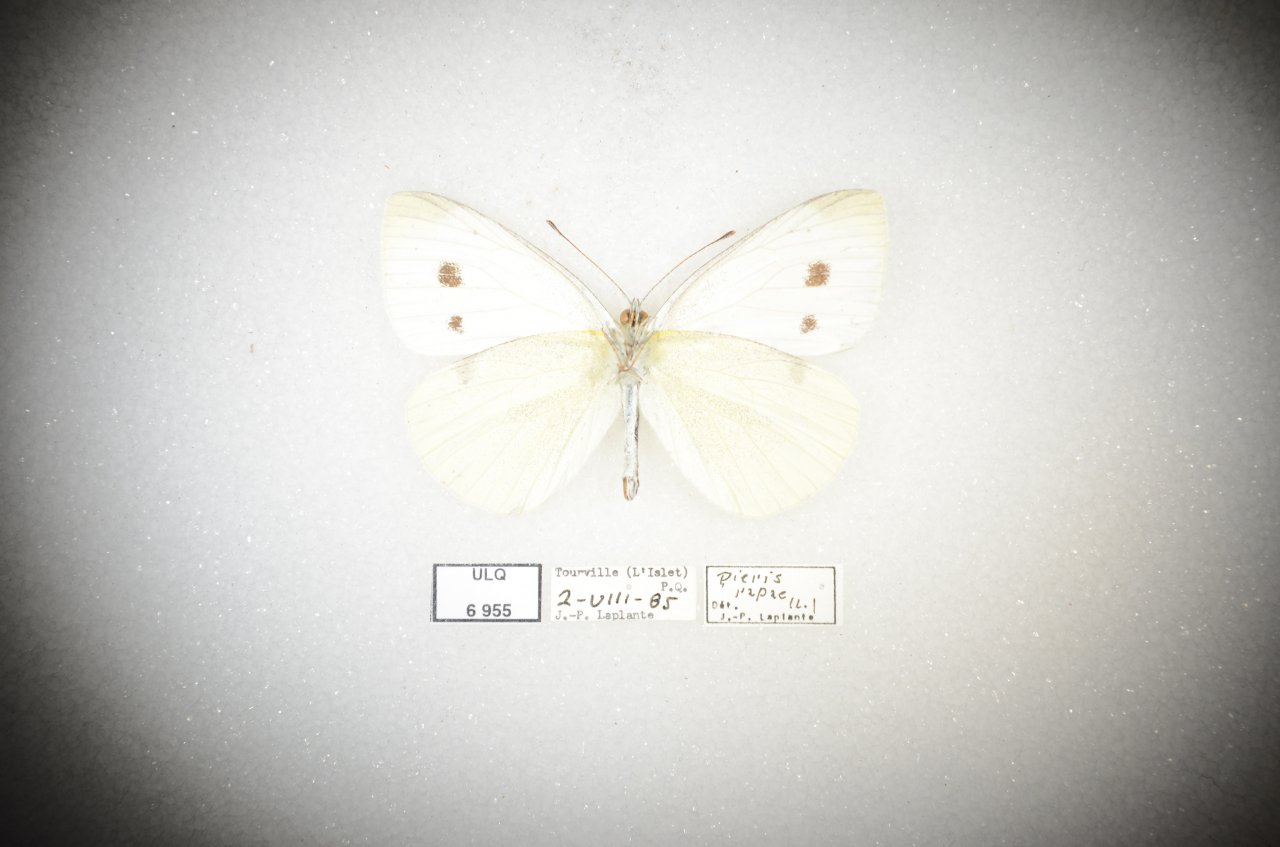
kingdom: Animalia
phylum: Arthropoda
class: Insecta
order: Lepidoptera
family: Pieridae
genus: Pieris
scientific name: Pieris rapae
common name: Cabbage White
